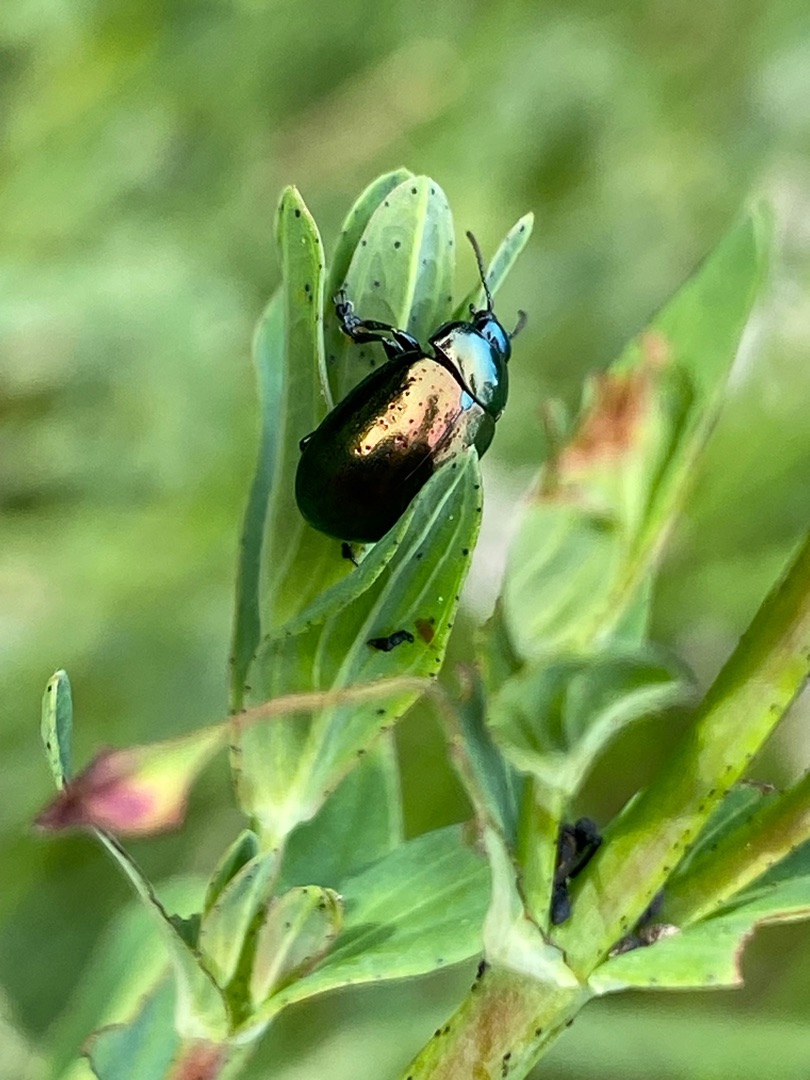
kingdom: Animalia
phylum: Arthropoda
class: Insecta
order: Coleoptera
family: Chrysomelidae
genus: Chrysolina
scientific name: Chrysolina hyperici
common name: Liden guldbille
